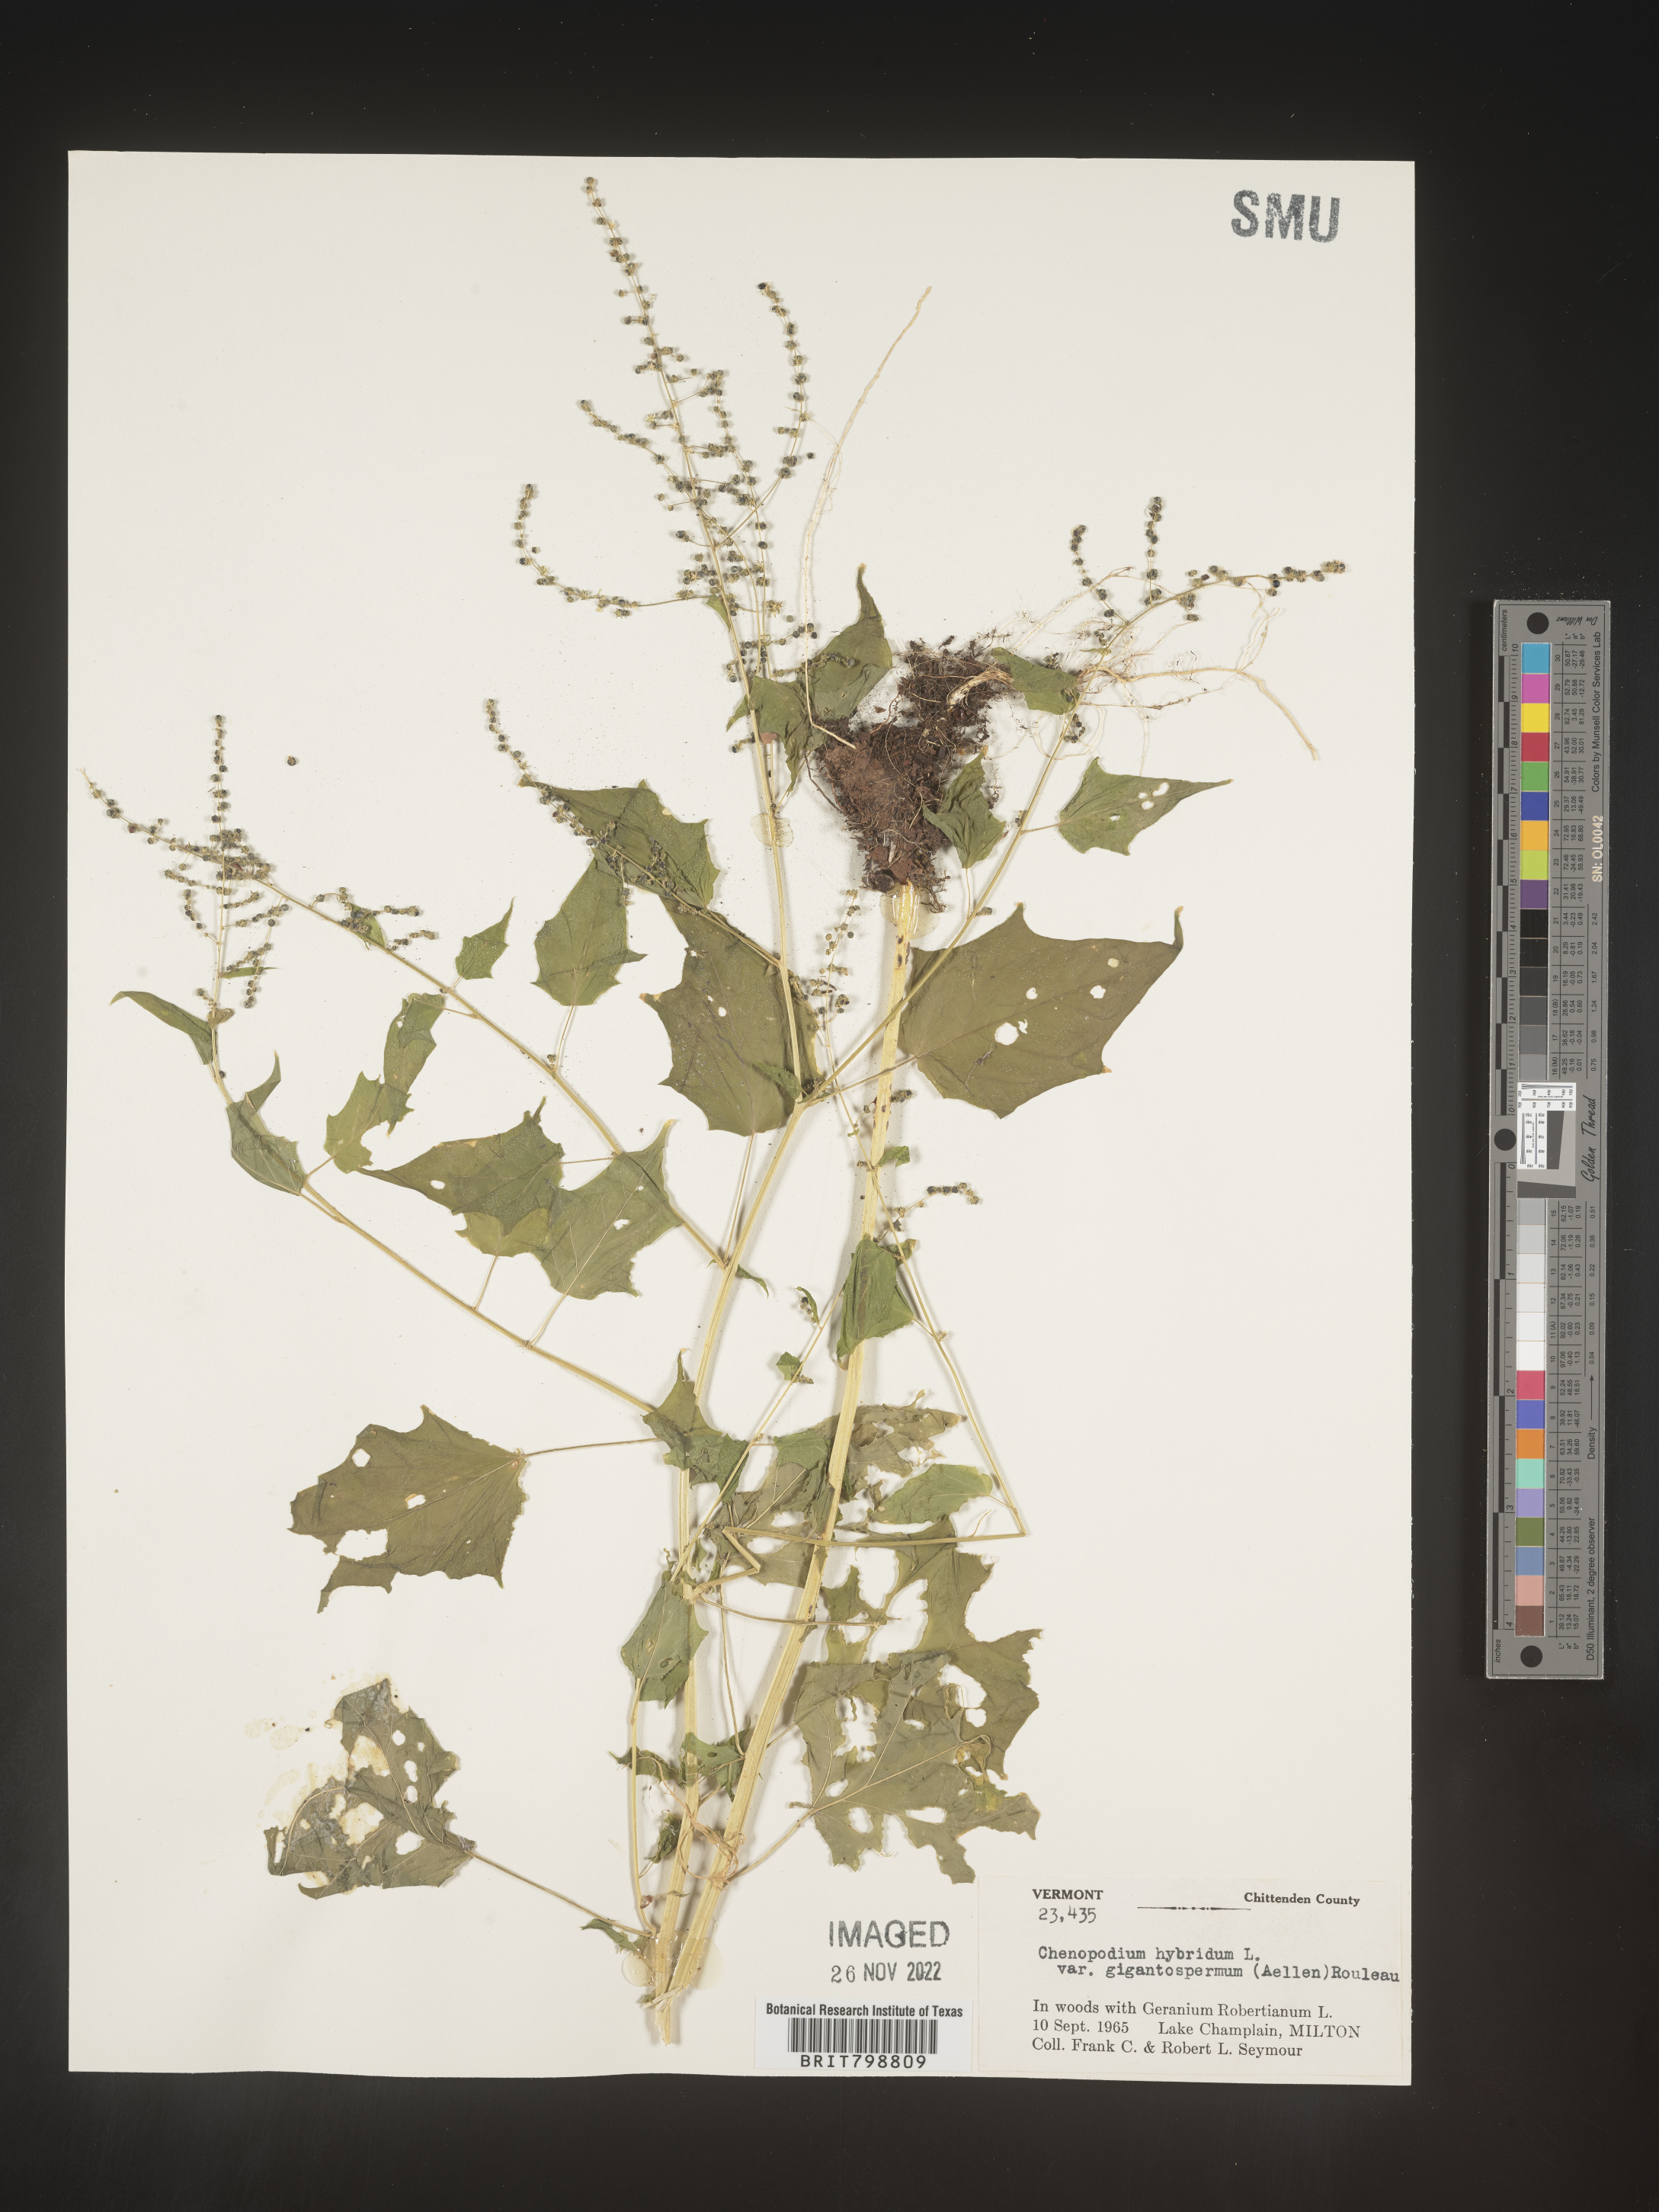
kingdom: Plantae
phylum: Tracheophyta
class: Magnoliopsida
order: Caryophyllales
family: Amaranthaceae
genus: Chenopodiastrum
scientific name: Chenopodiastrum simplex
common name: Large-seed goosefoot
